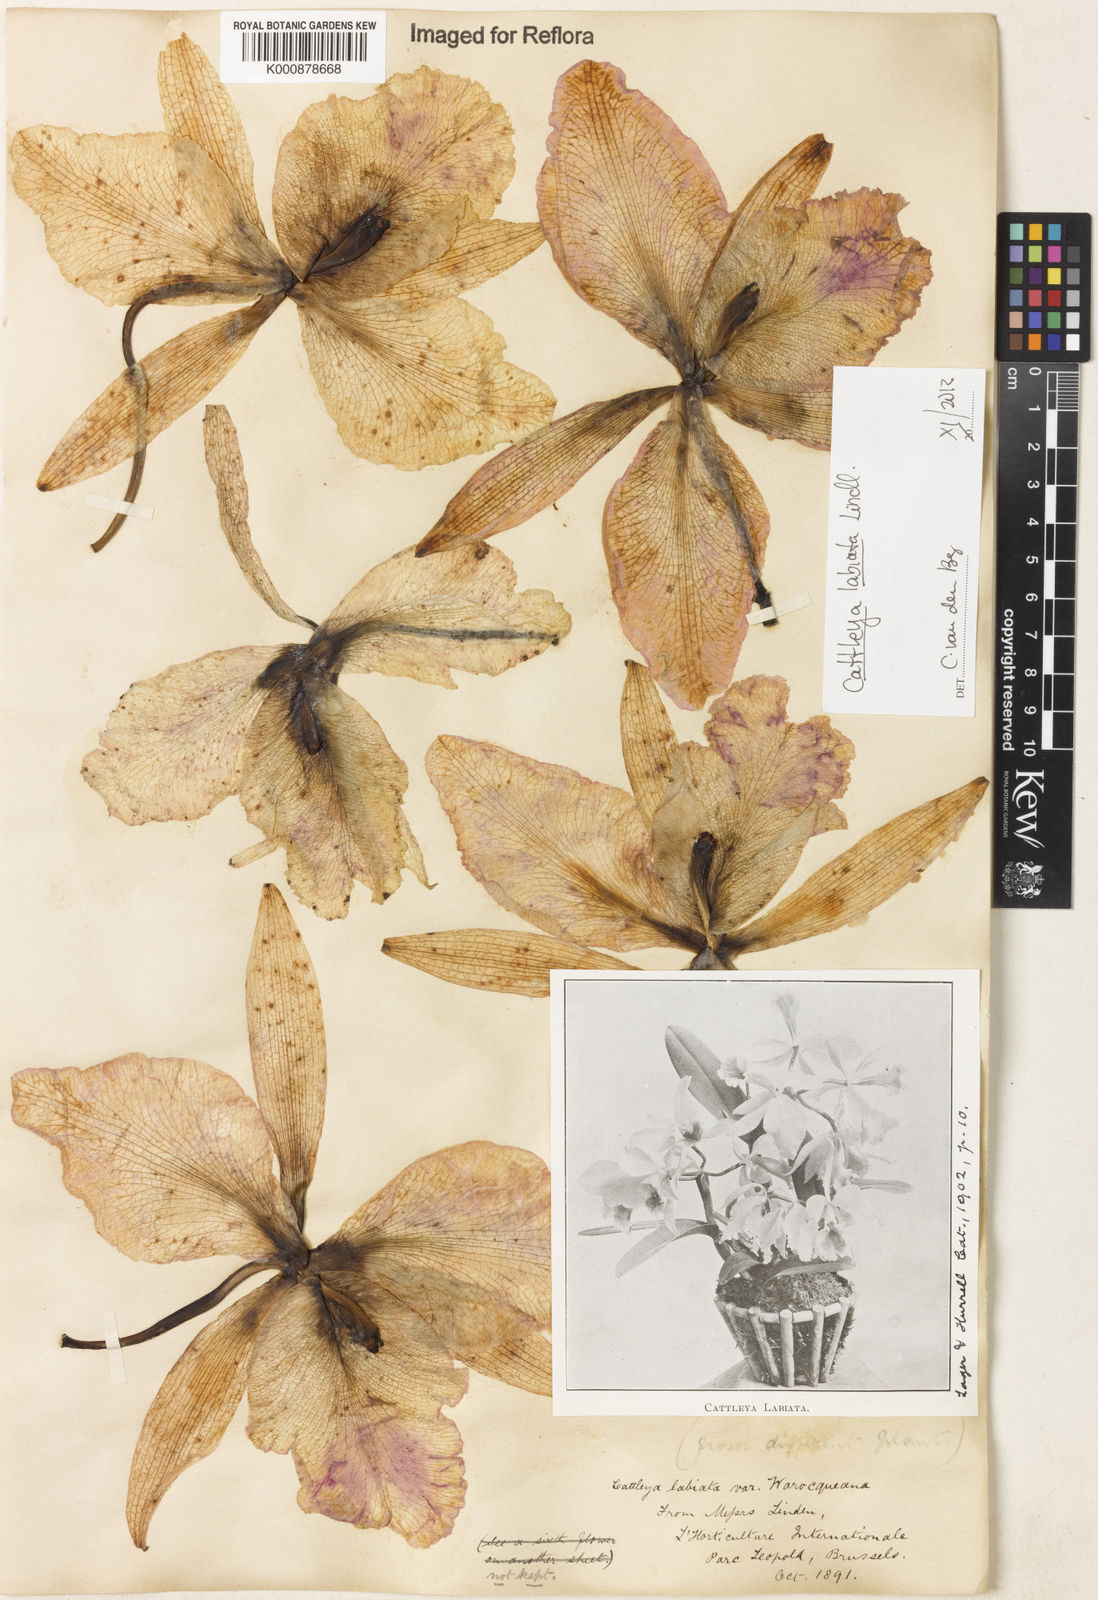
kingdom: Plantae
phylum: Tracheophyta
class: Liliopsida
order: Asparagales
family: Orchidaceae
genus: Cattleya
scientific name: Cattleya labiata
